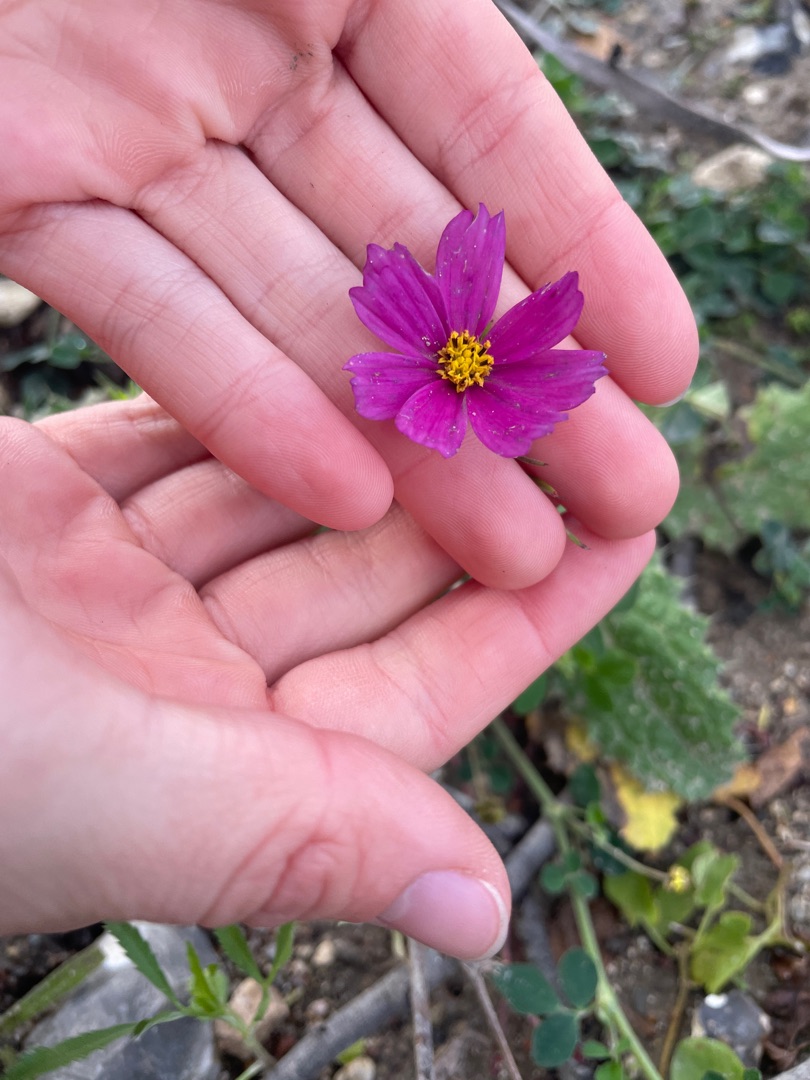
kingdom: Plantae
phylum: Tracheophyta
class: Magnoliopsida
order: Asterales
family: Asteraceae
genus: Cosmos
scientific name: Cosmos bipinnatus
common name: Stolt kavaler
